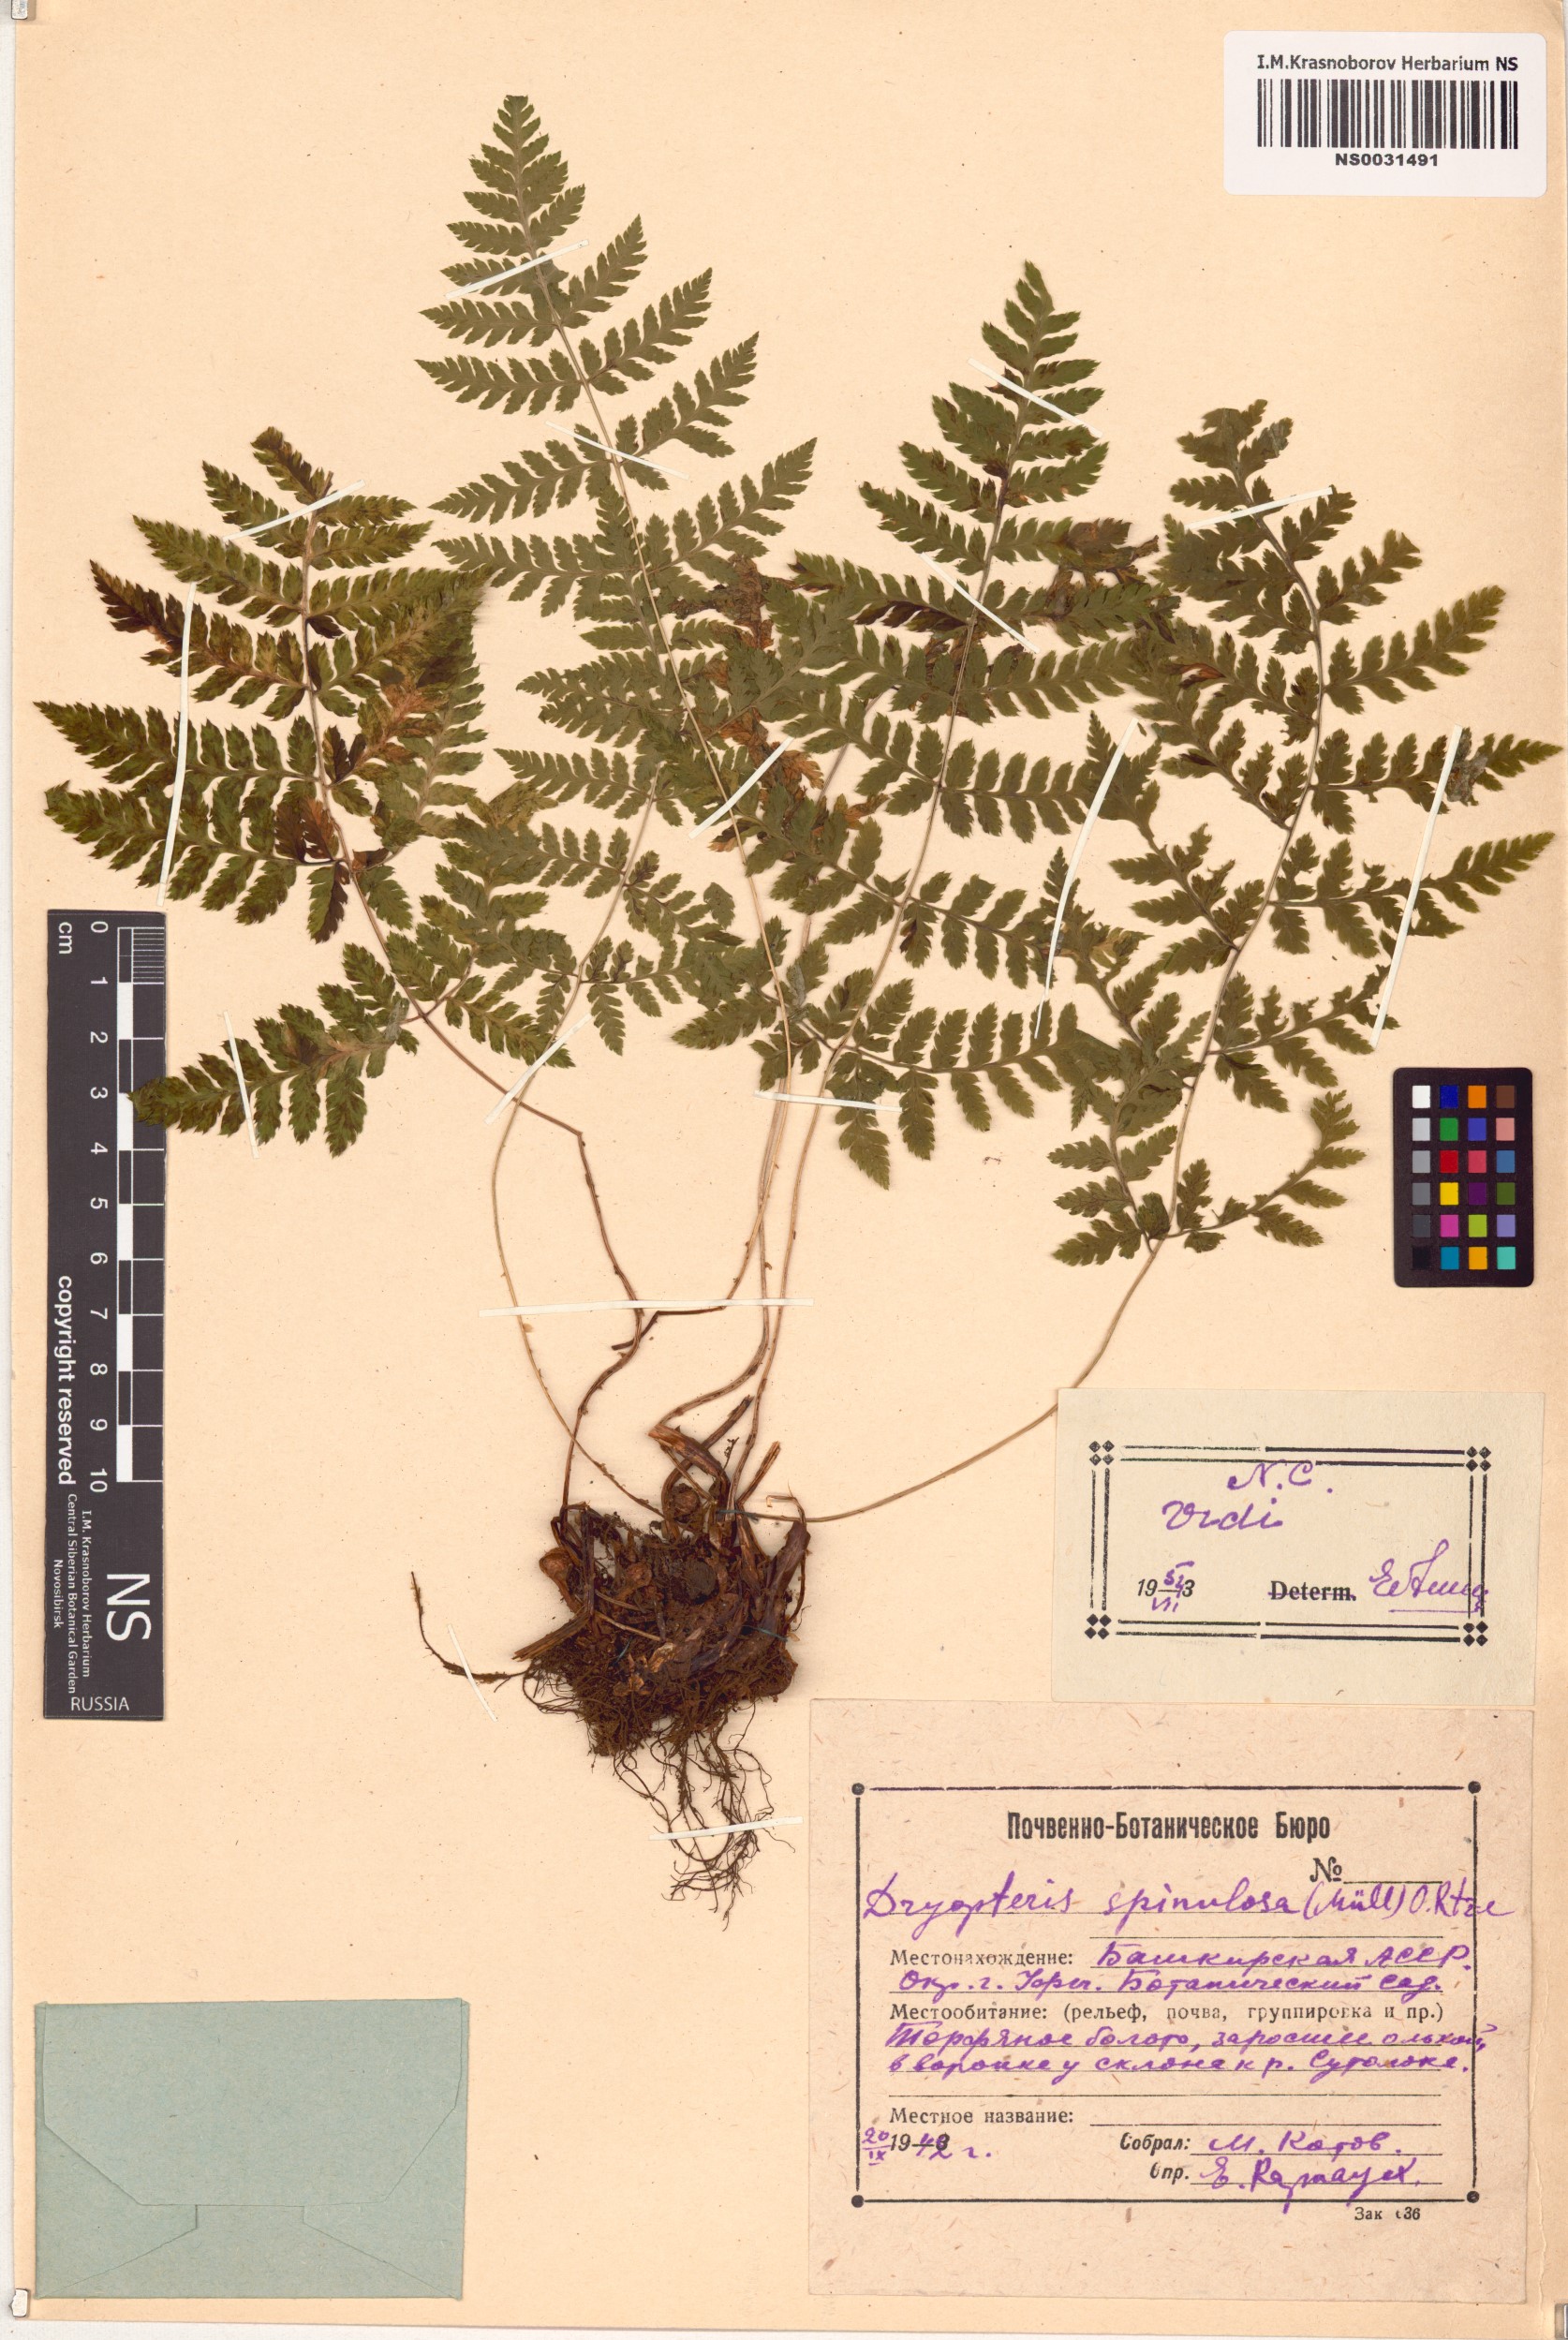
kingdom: Plantae
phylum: Tracheophyta
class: Polypodiopsida
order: Polypodiales
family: Dryopteridaceae
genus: Dryopteris
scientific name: Dryopteris carthusiana
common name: Narrow buckler-fern
